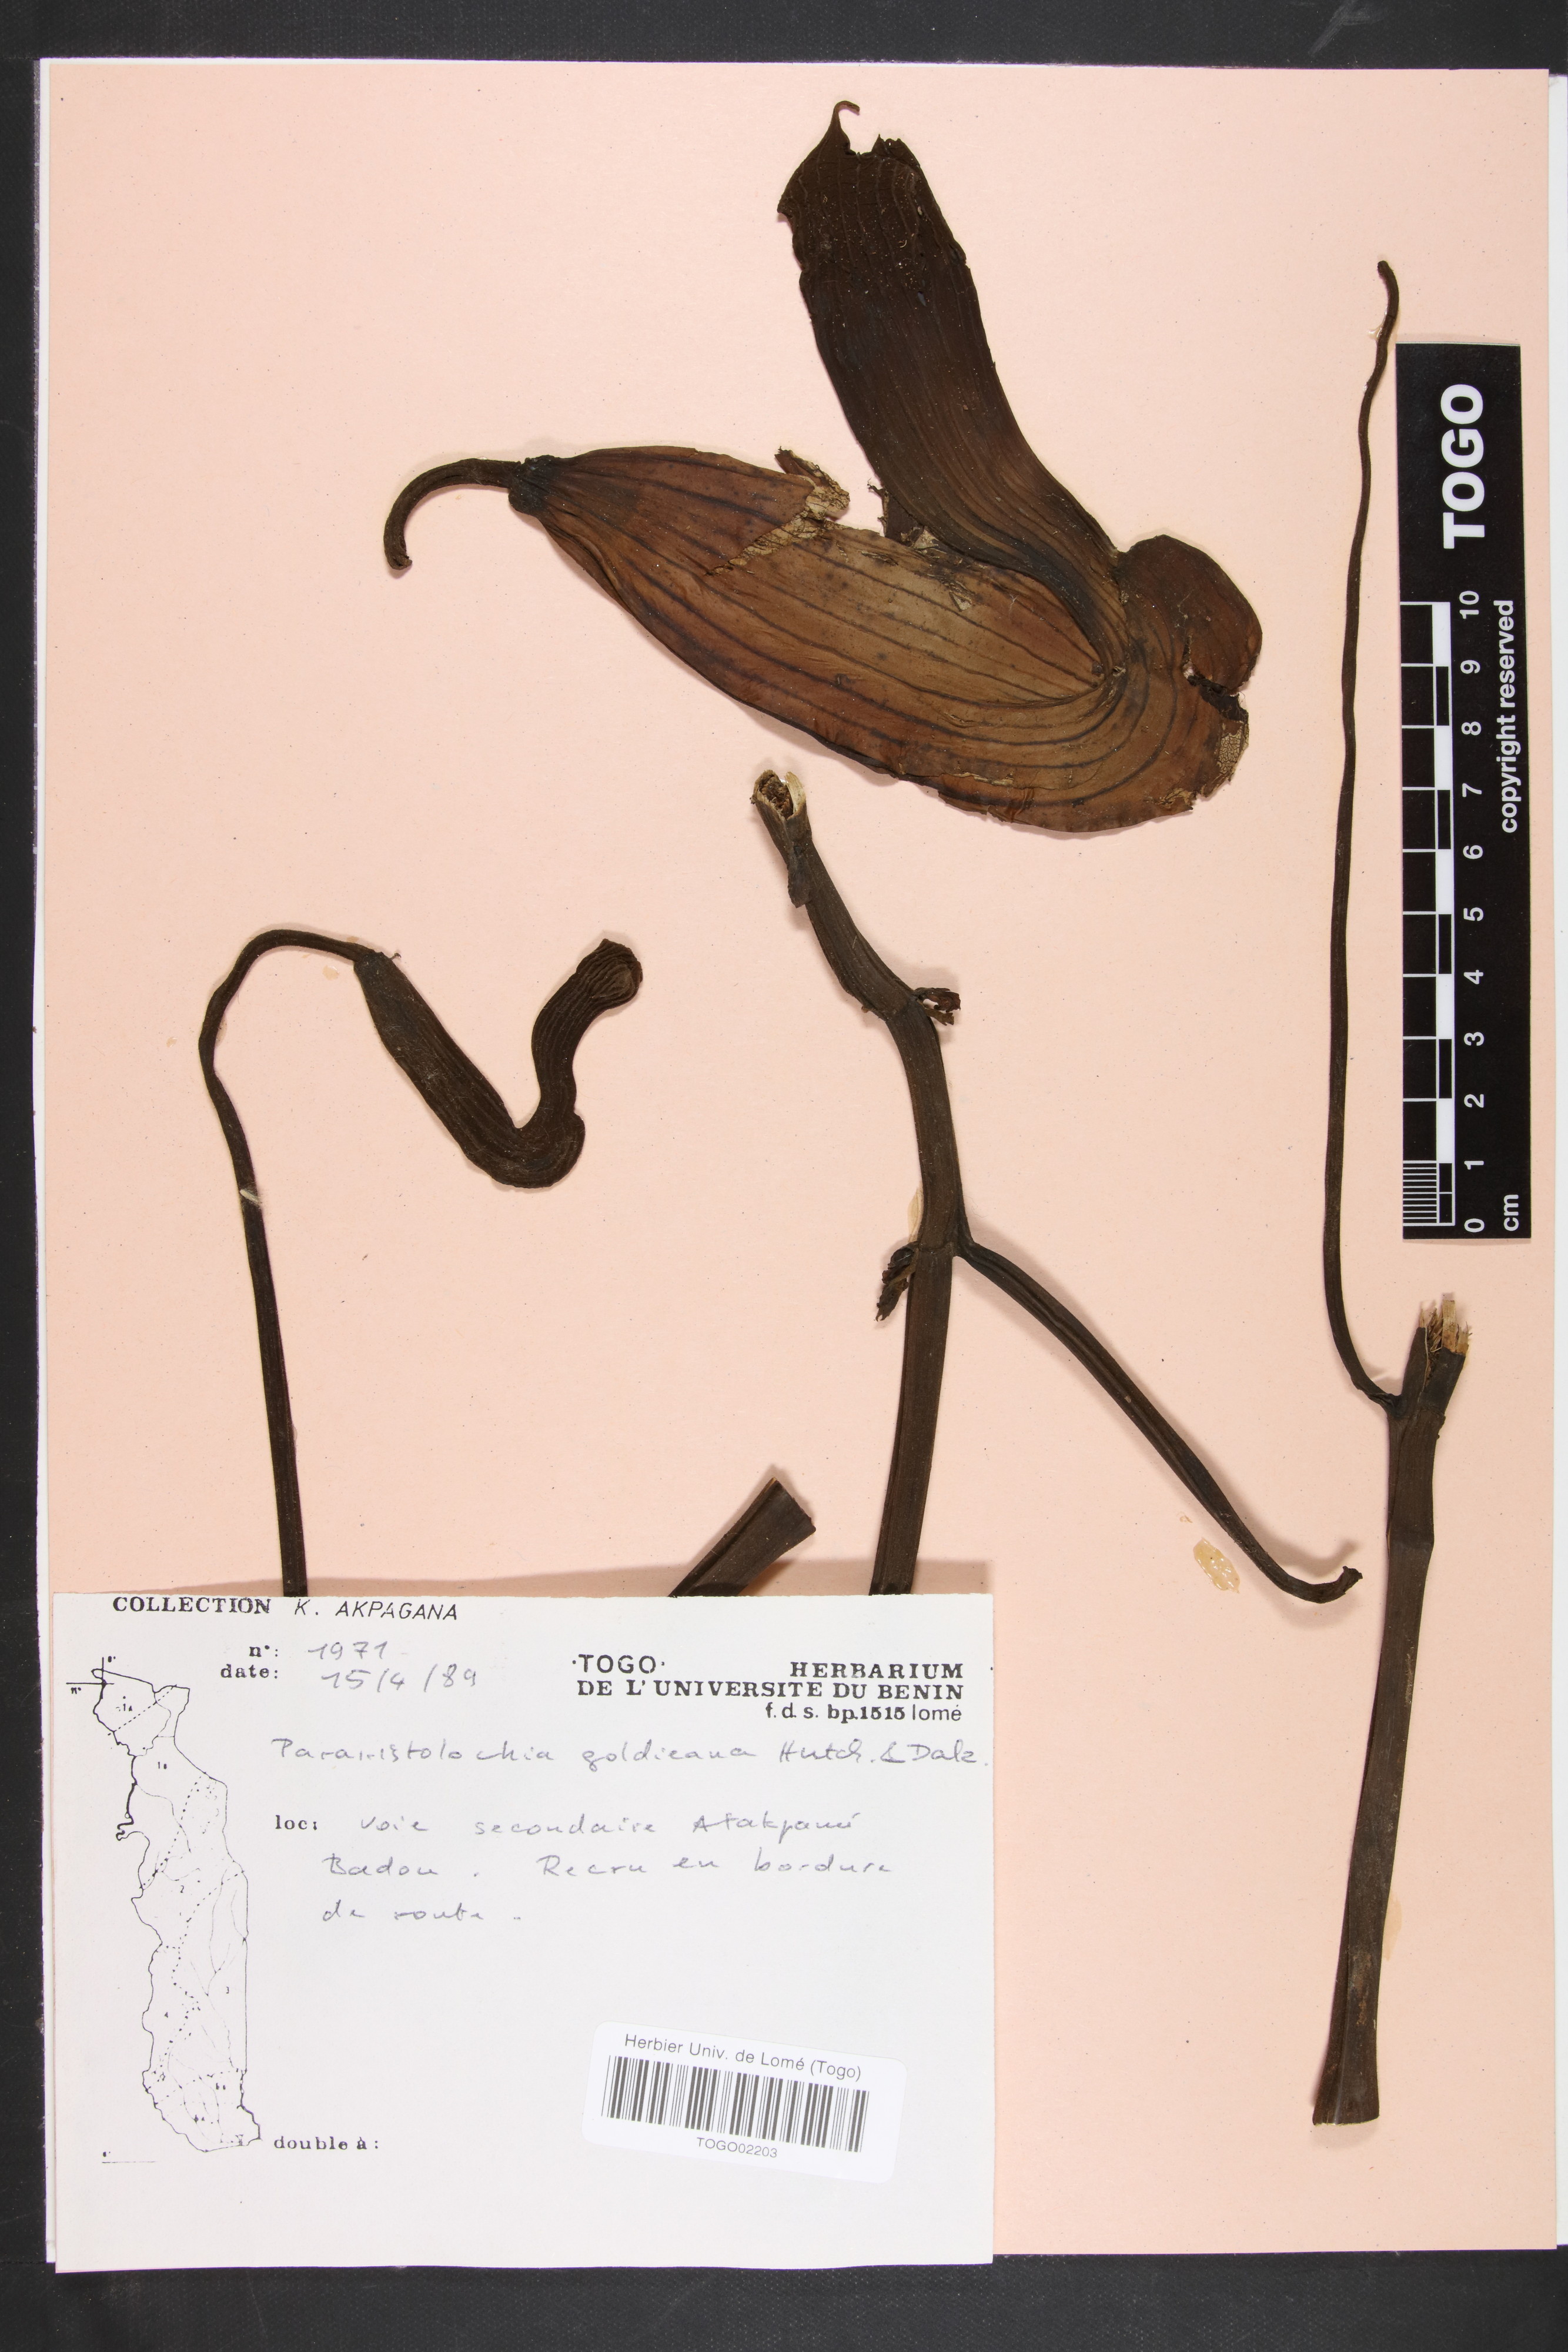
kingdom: Plantae
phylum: Tracheophyta
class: Magnoliopsida
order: Piperales
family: Aristolochiaceae
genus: Aristolochia
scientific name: Aristolochia goldieana
